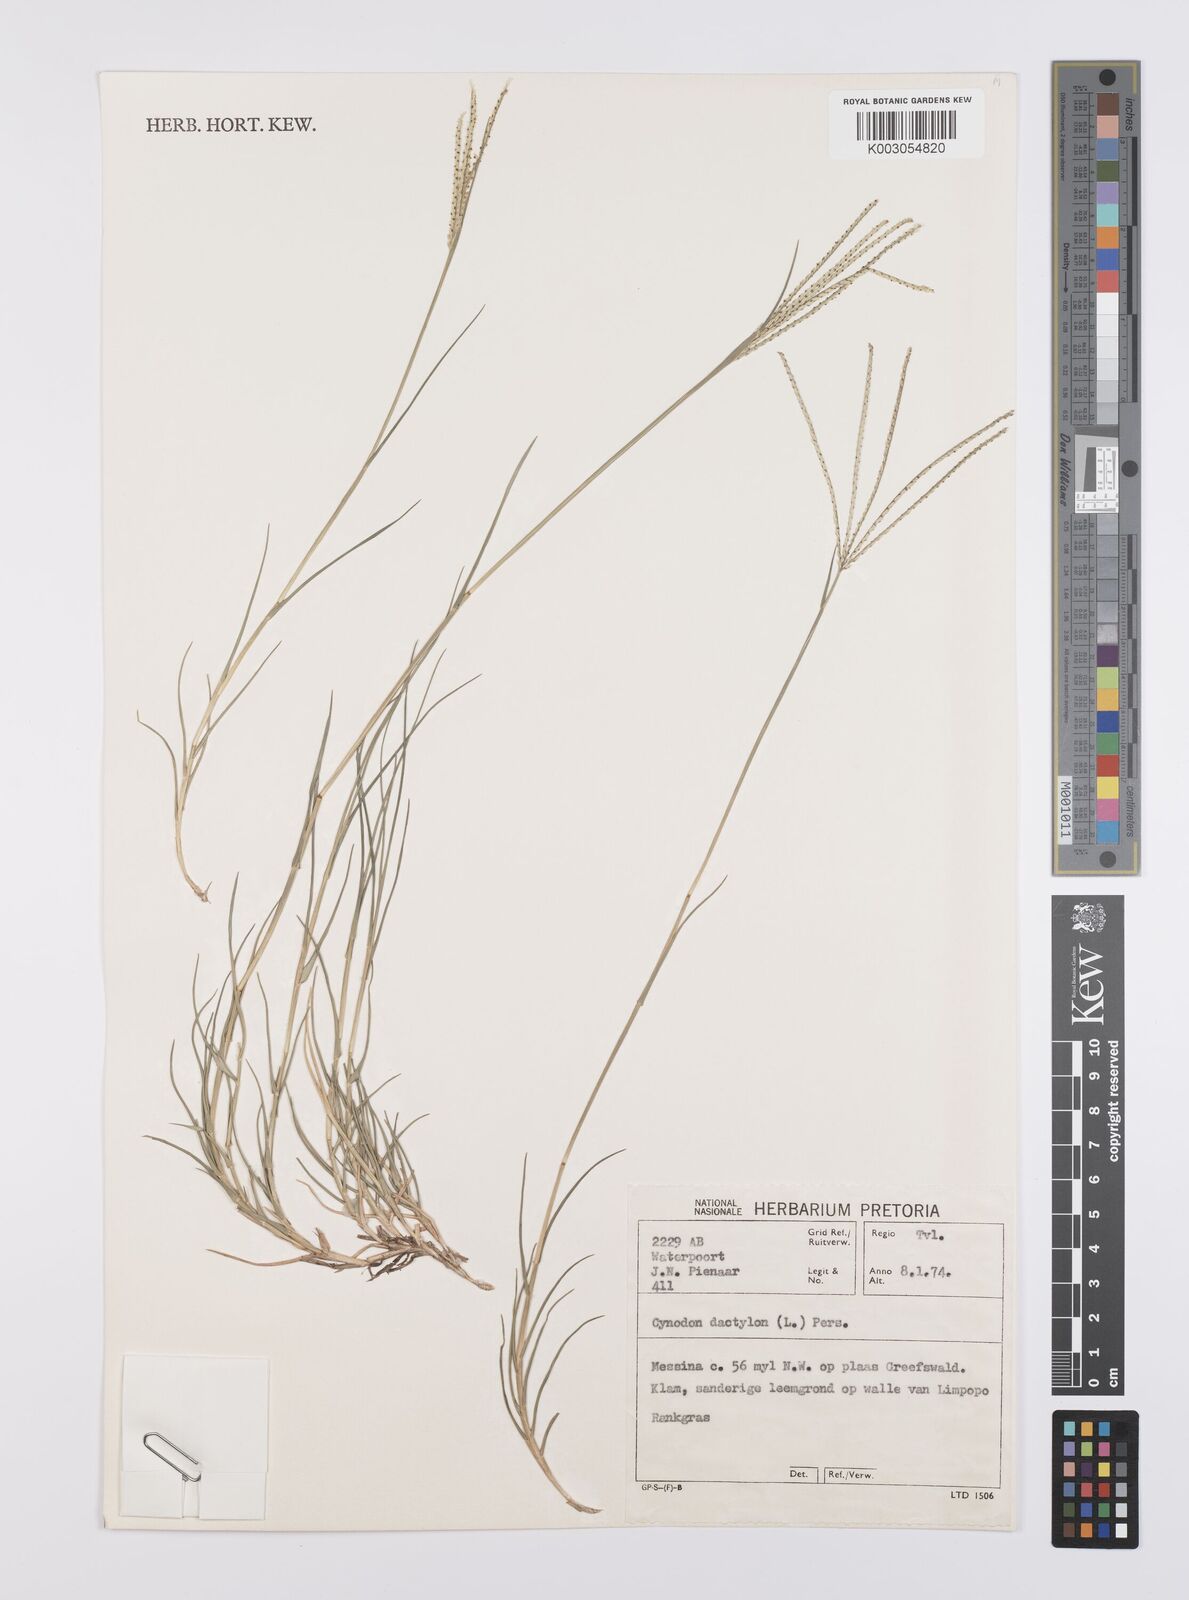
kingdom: Plantae
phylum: Tracheophyta
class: Liliopsida
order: Poales
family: Poaceae
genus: Cynodon
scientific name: Cynodon dactylon
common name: Bermuda grass
